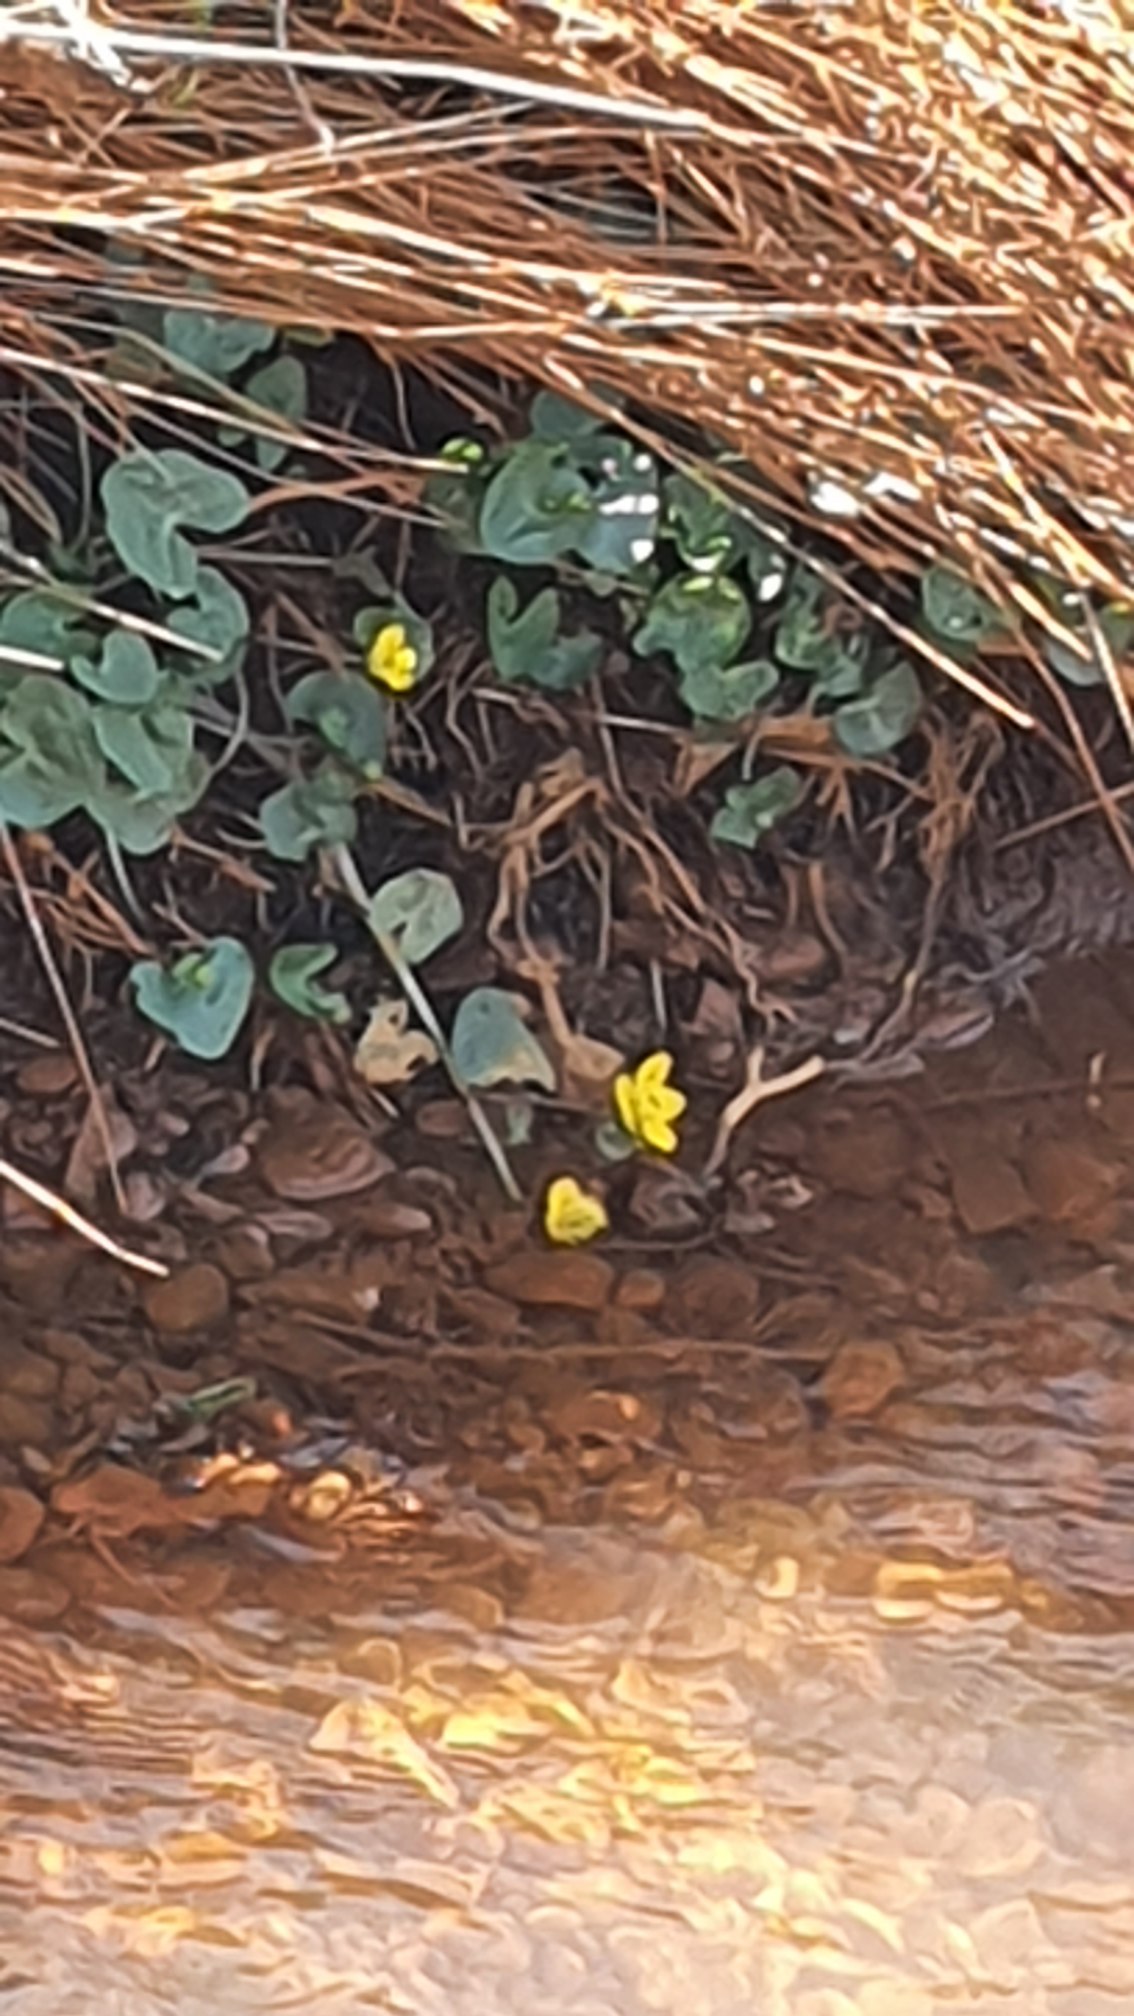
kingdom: Plantae
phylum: Tracheophyta
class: Magnoliopsida
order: Ranunculales
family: Ranunculaceae
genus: Caltha
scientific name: Caltha palustris
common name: Eng-kabbeleje
